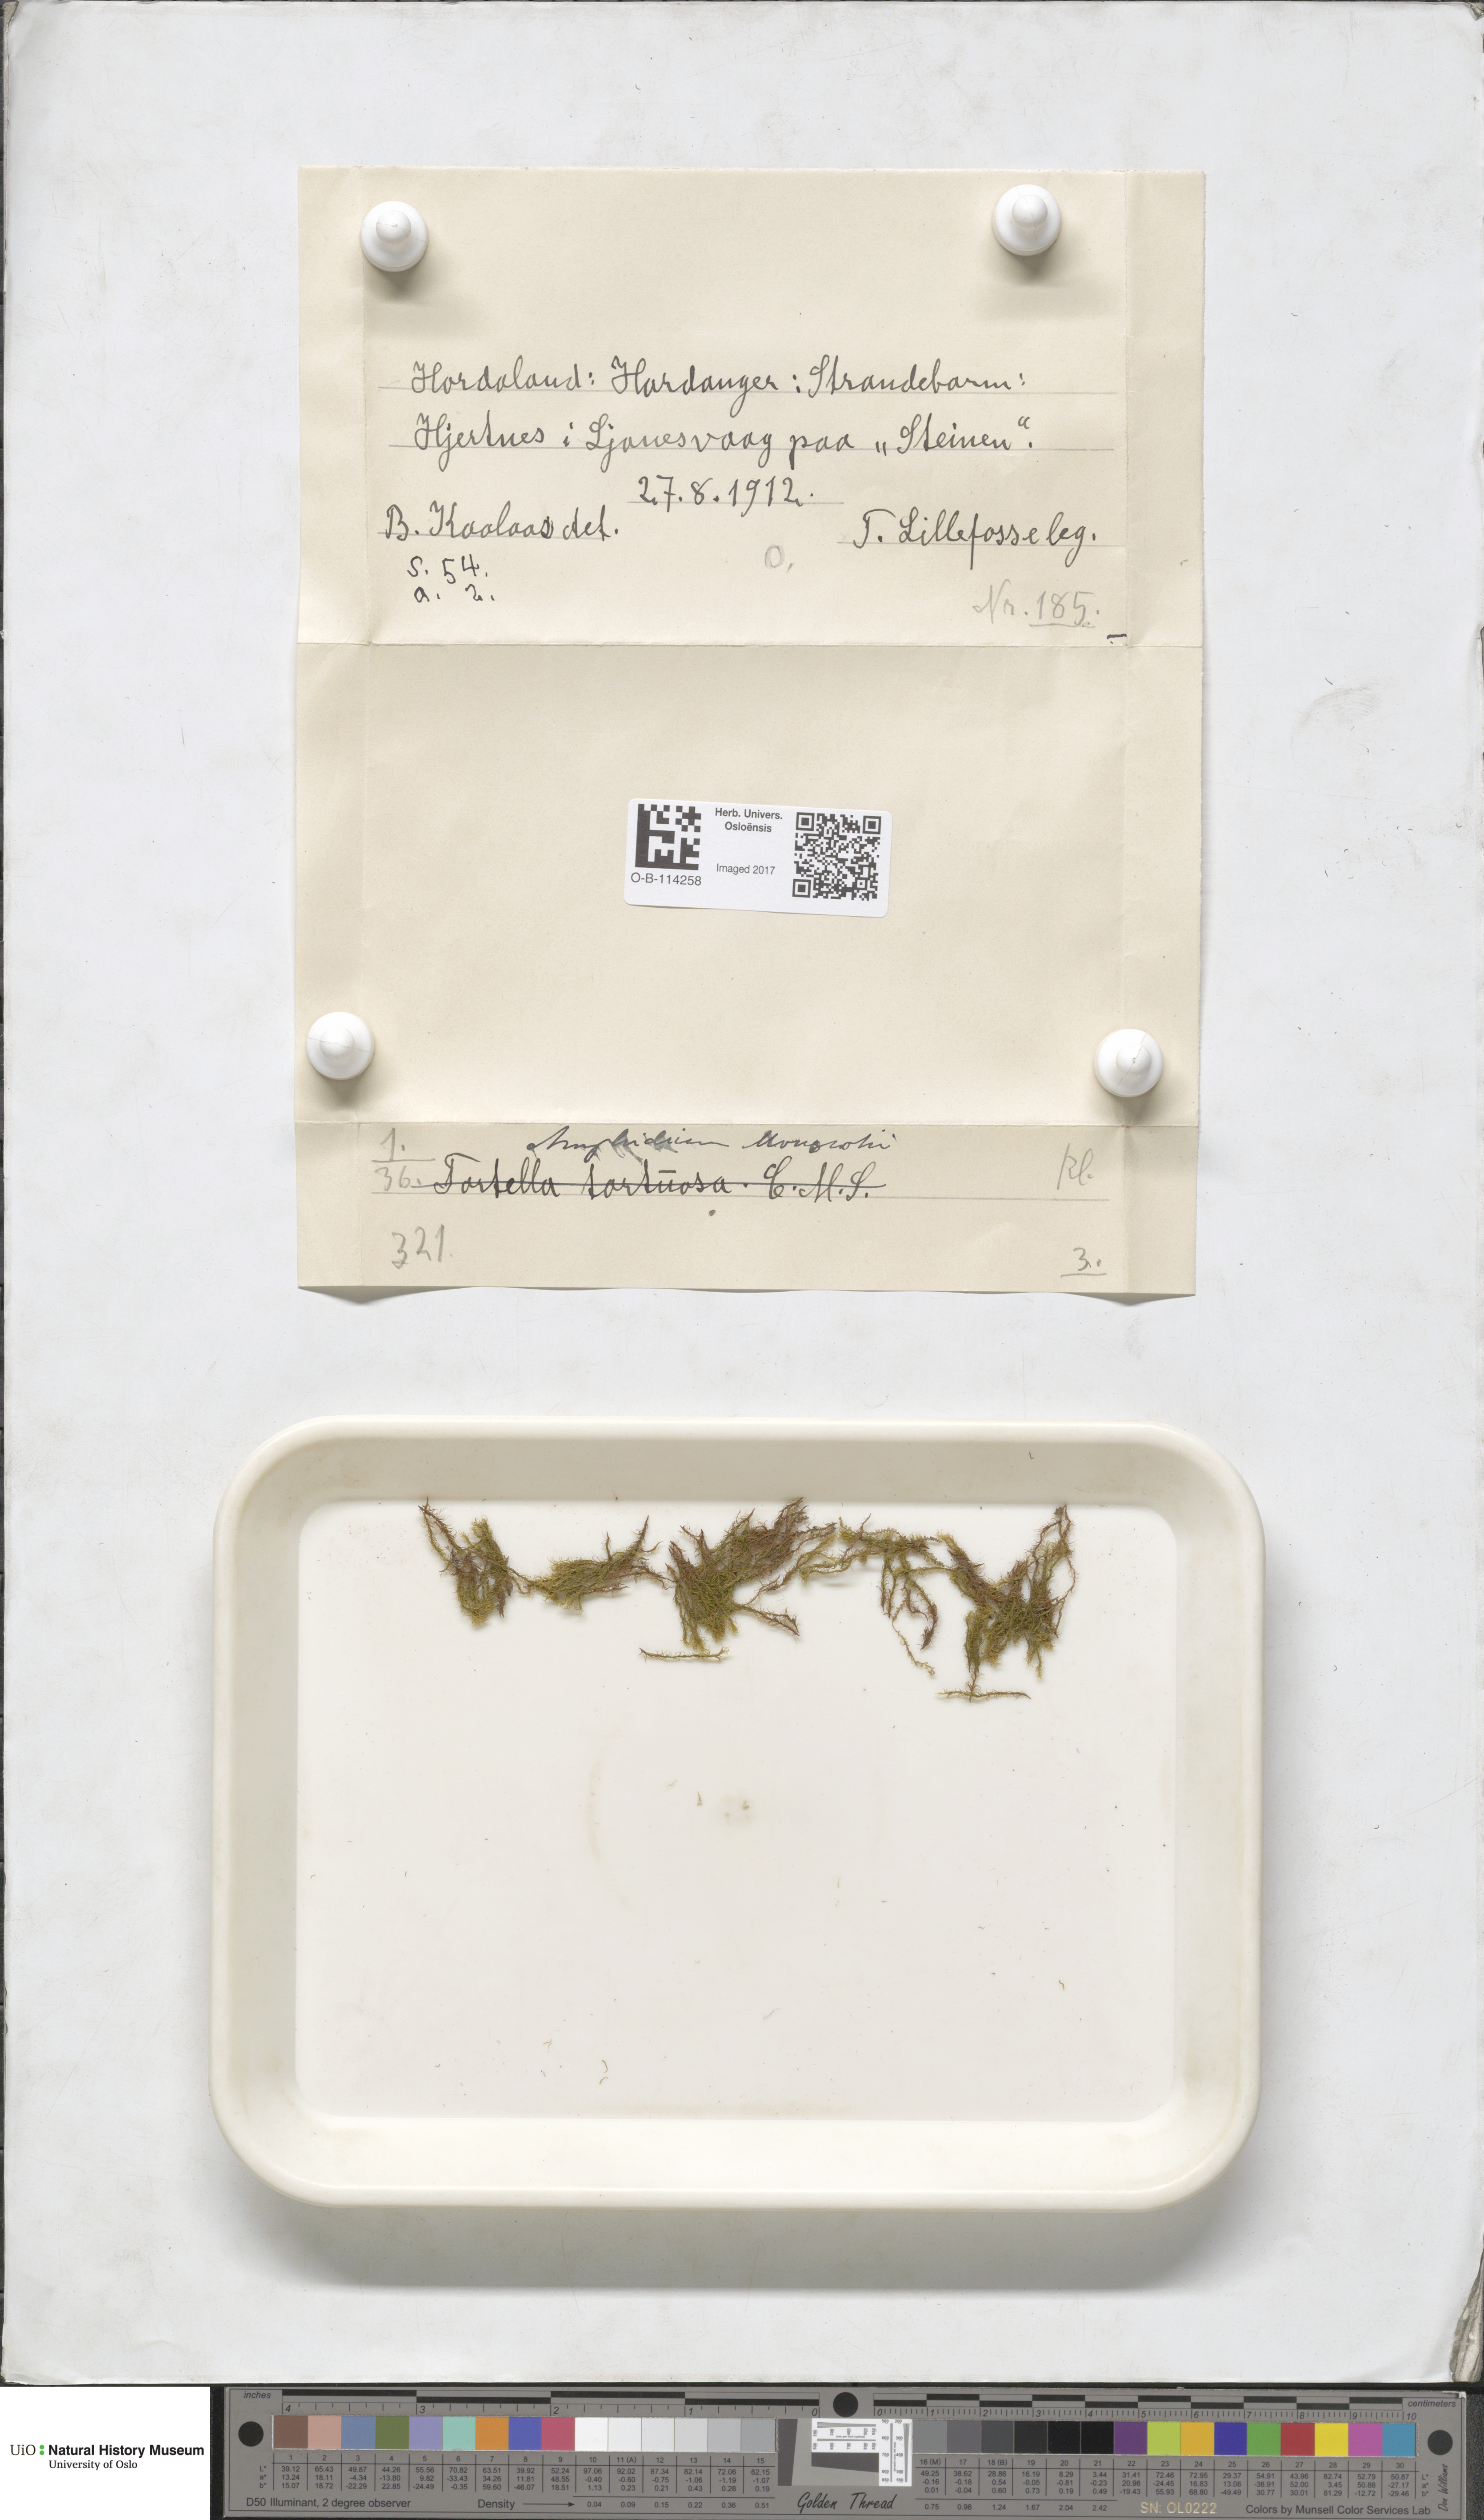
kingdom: Plantae
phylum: Bryophyta
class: Bryopsida
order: Dicranales
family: Amphidiaceae
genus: Amphidium
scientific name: Amphidium mougeotii
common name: Mougeot's yoke moss
